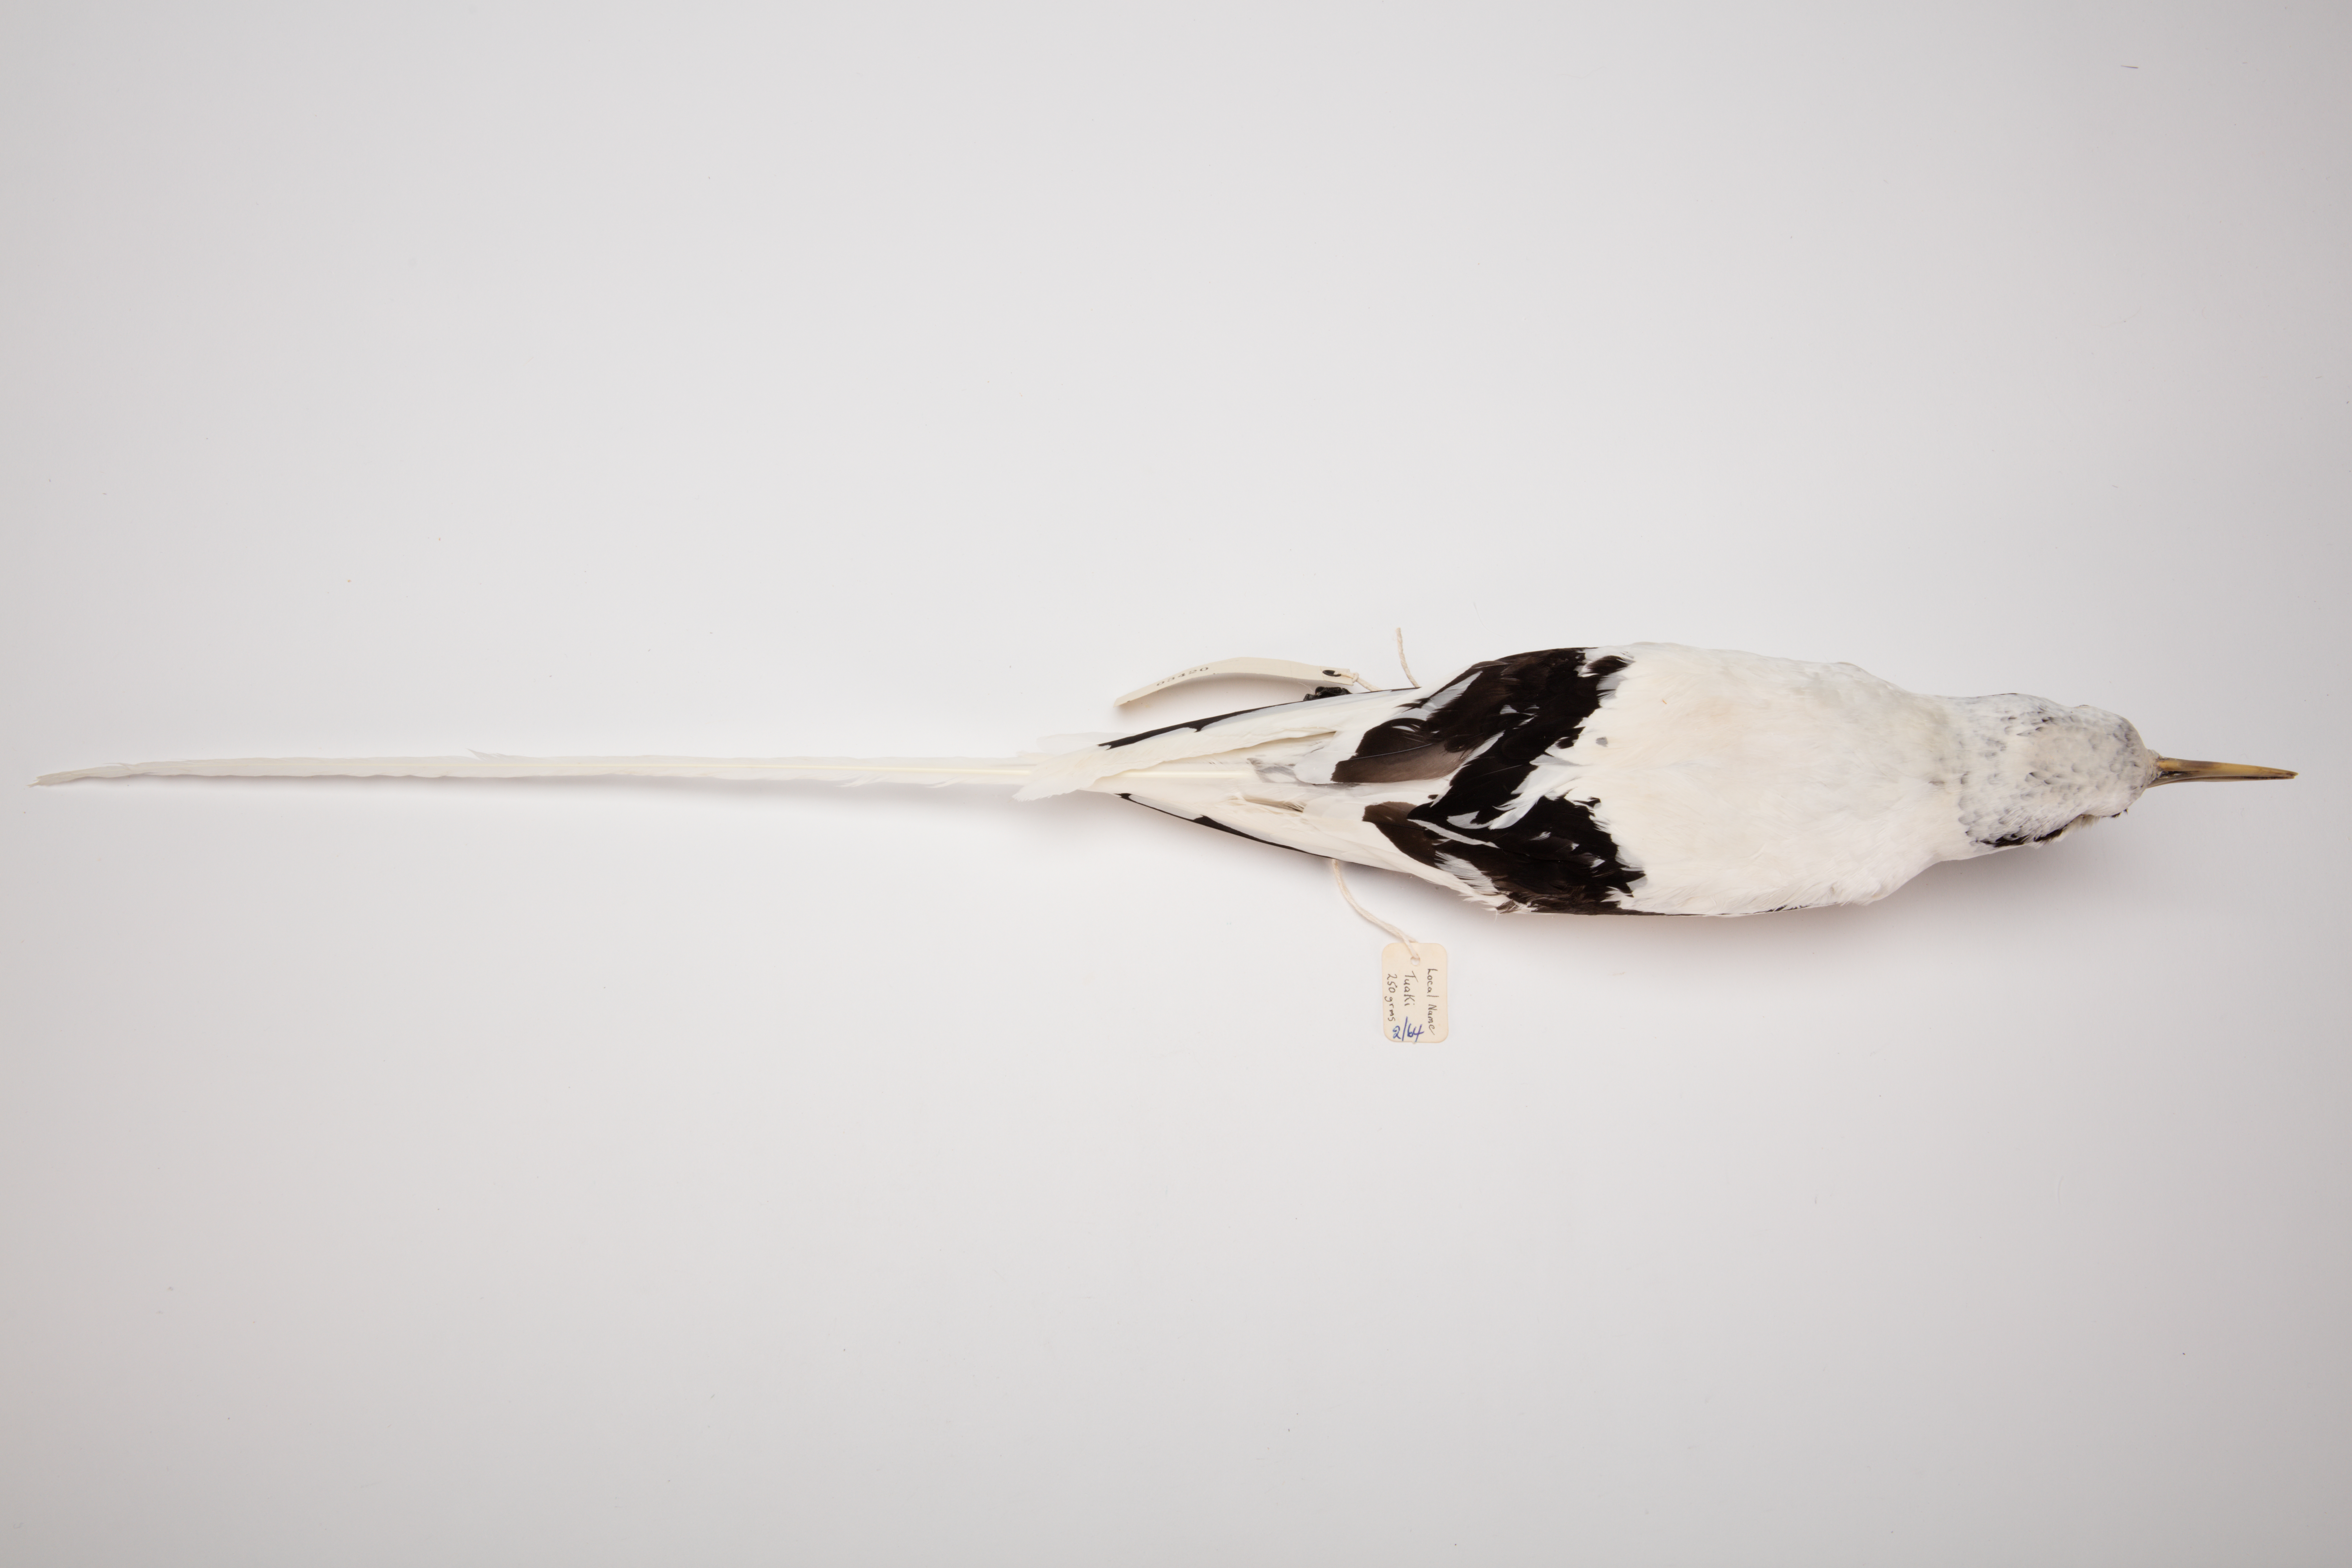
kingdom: Animalia
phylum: Chordata
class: Aves
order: Phaethontiformes
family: Phaethontidae
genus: Phaethon
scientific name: Phaethon lepturus
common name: White-tailed tropicbird
